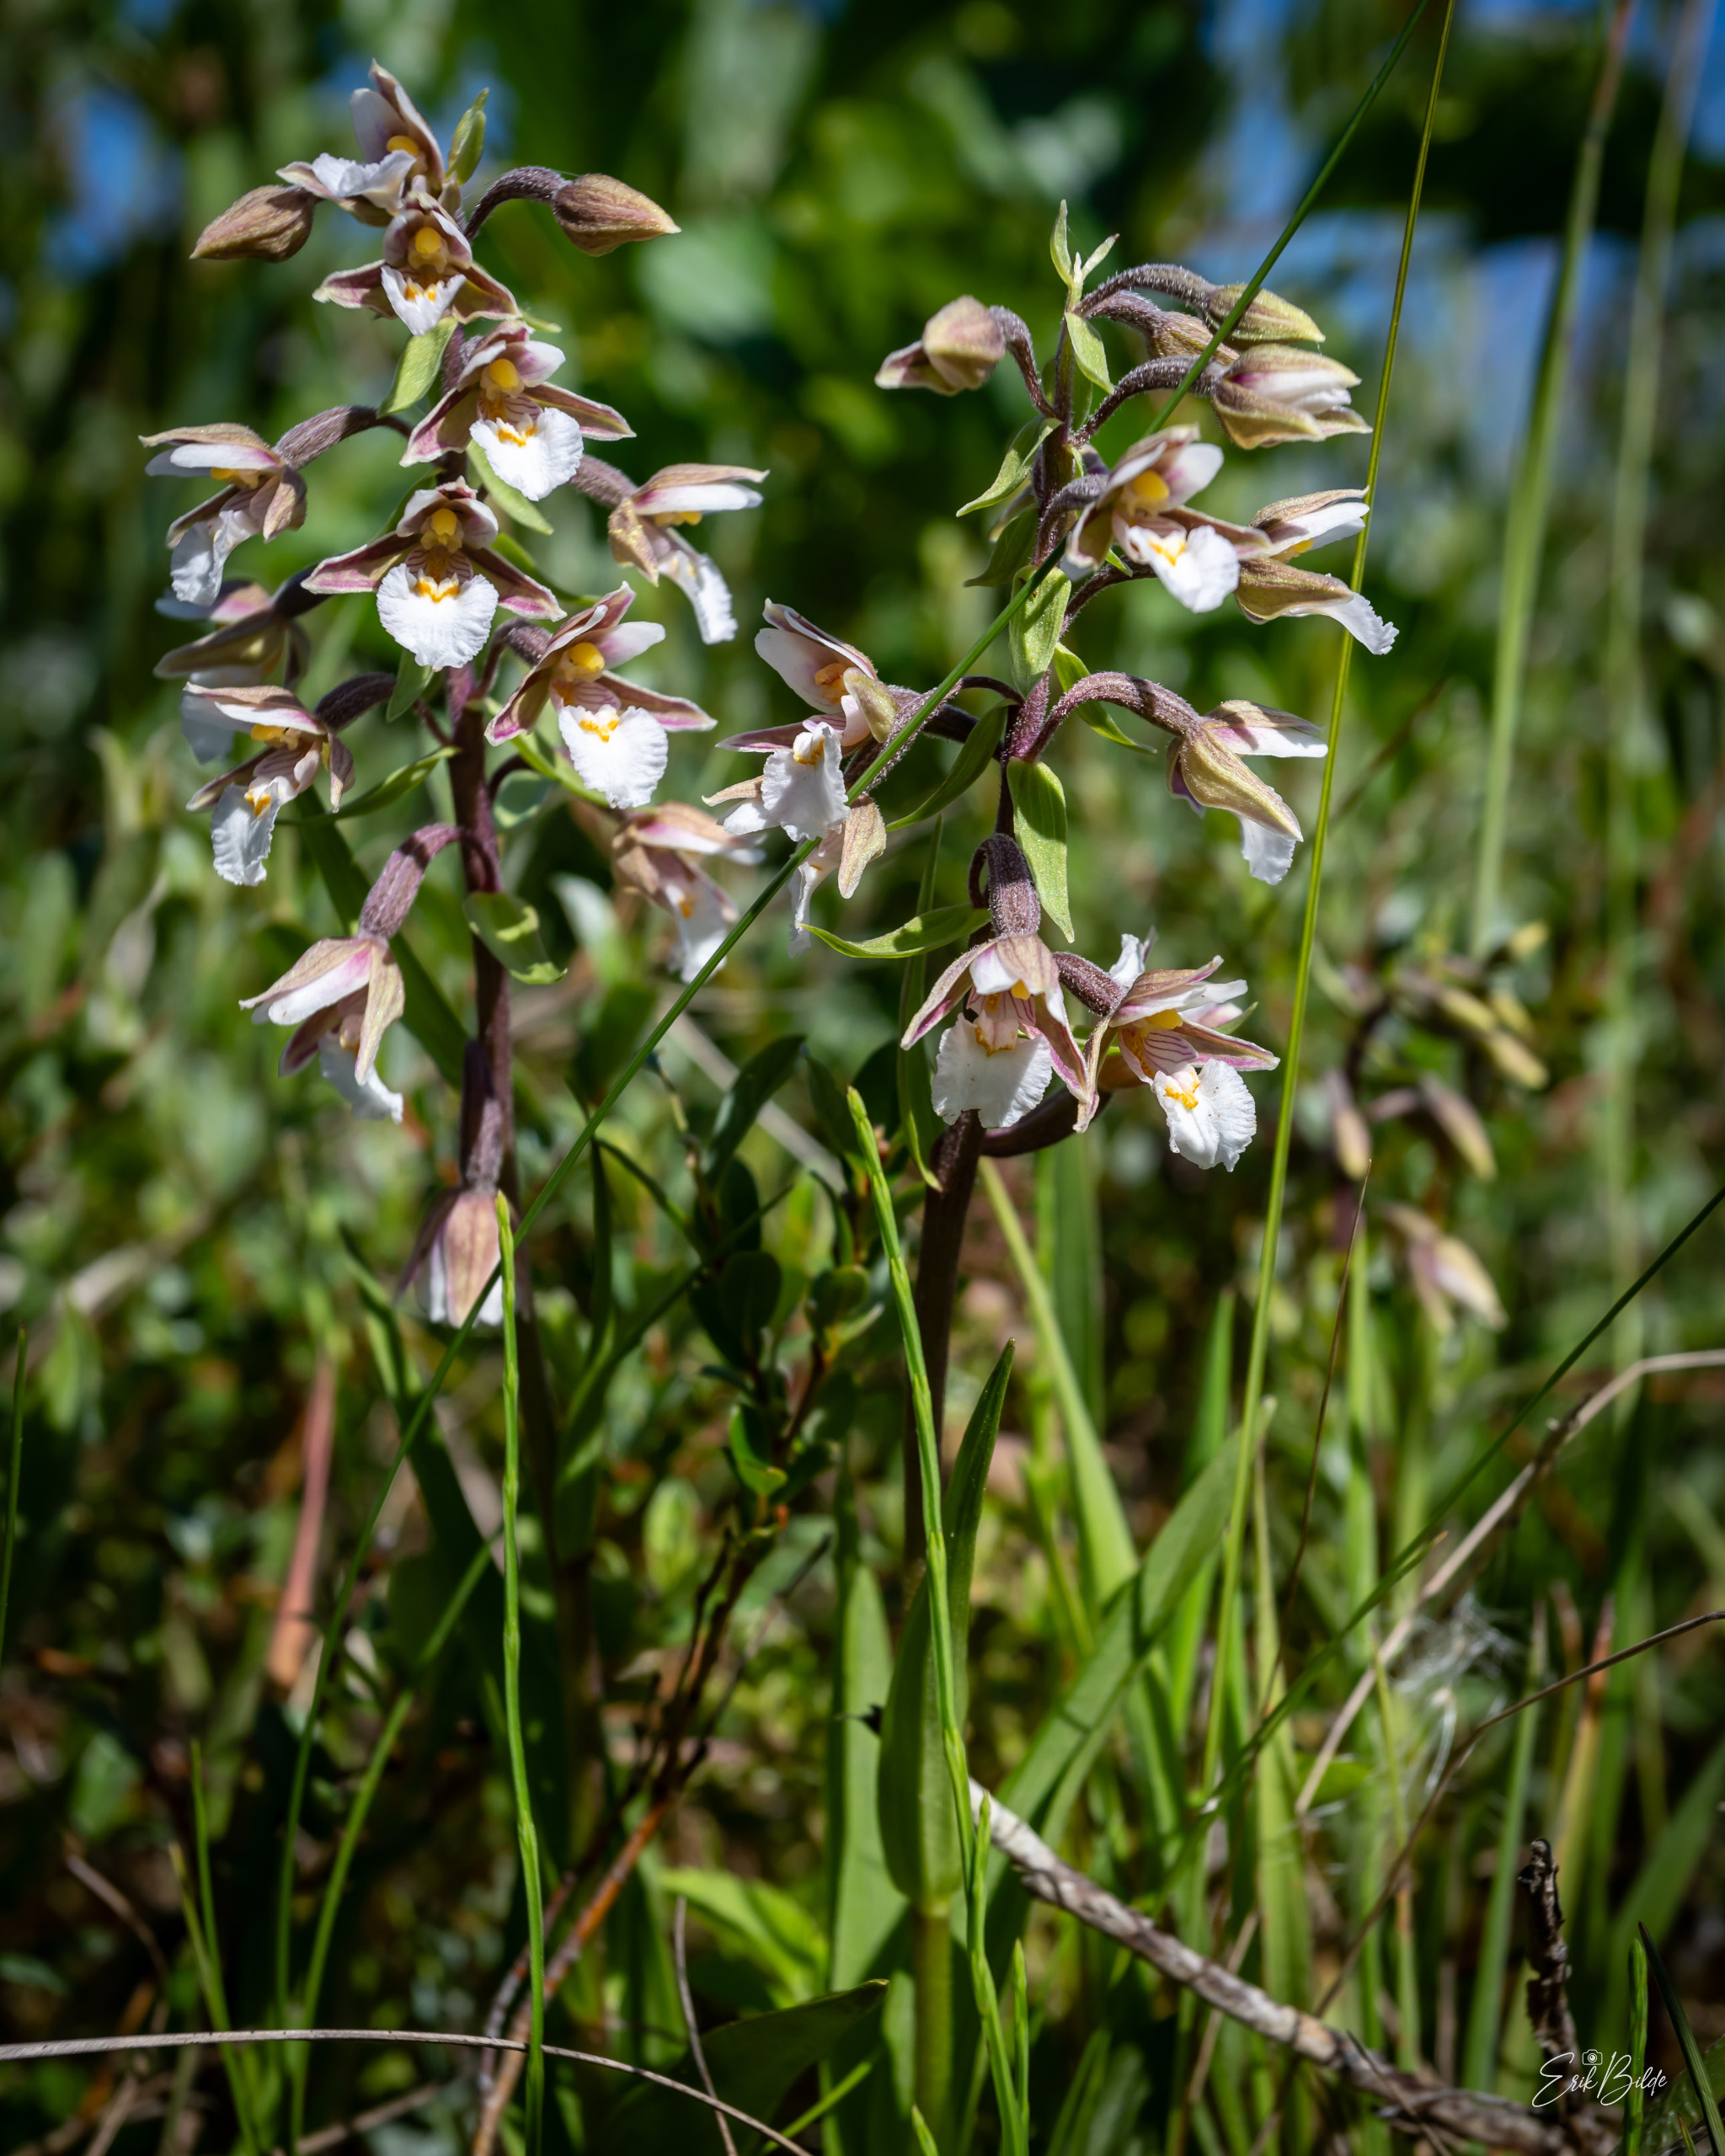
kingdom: Plantae
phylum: Tracheophyta
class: Liliopsida
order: Asparagales
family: Orchidaceae
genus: Epipactis
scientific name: Epipactis palustris
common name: Sump-hullæbe
